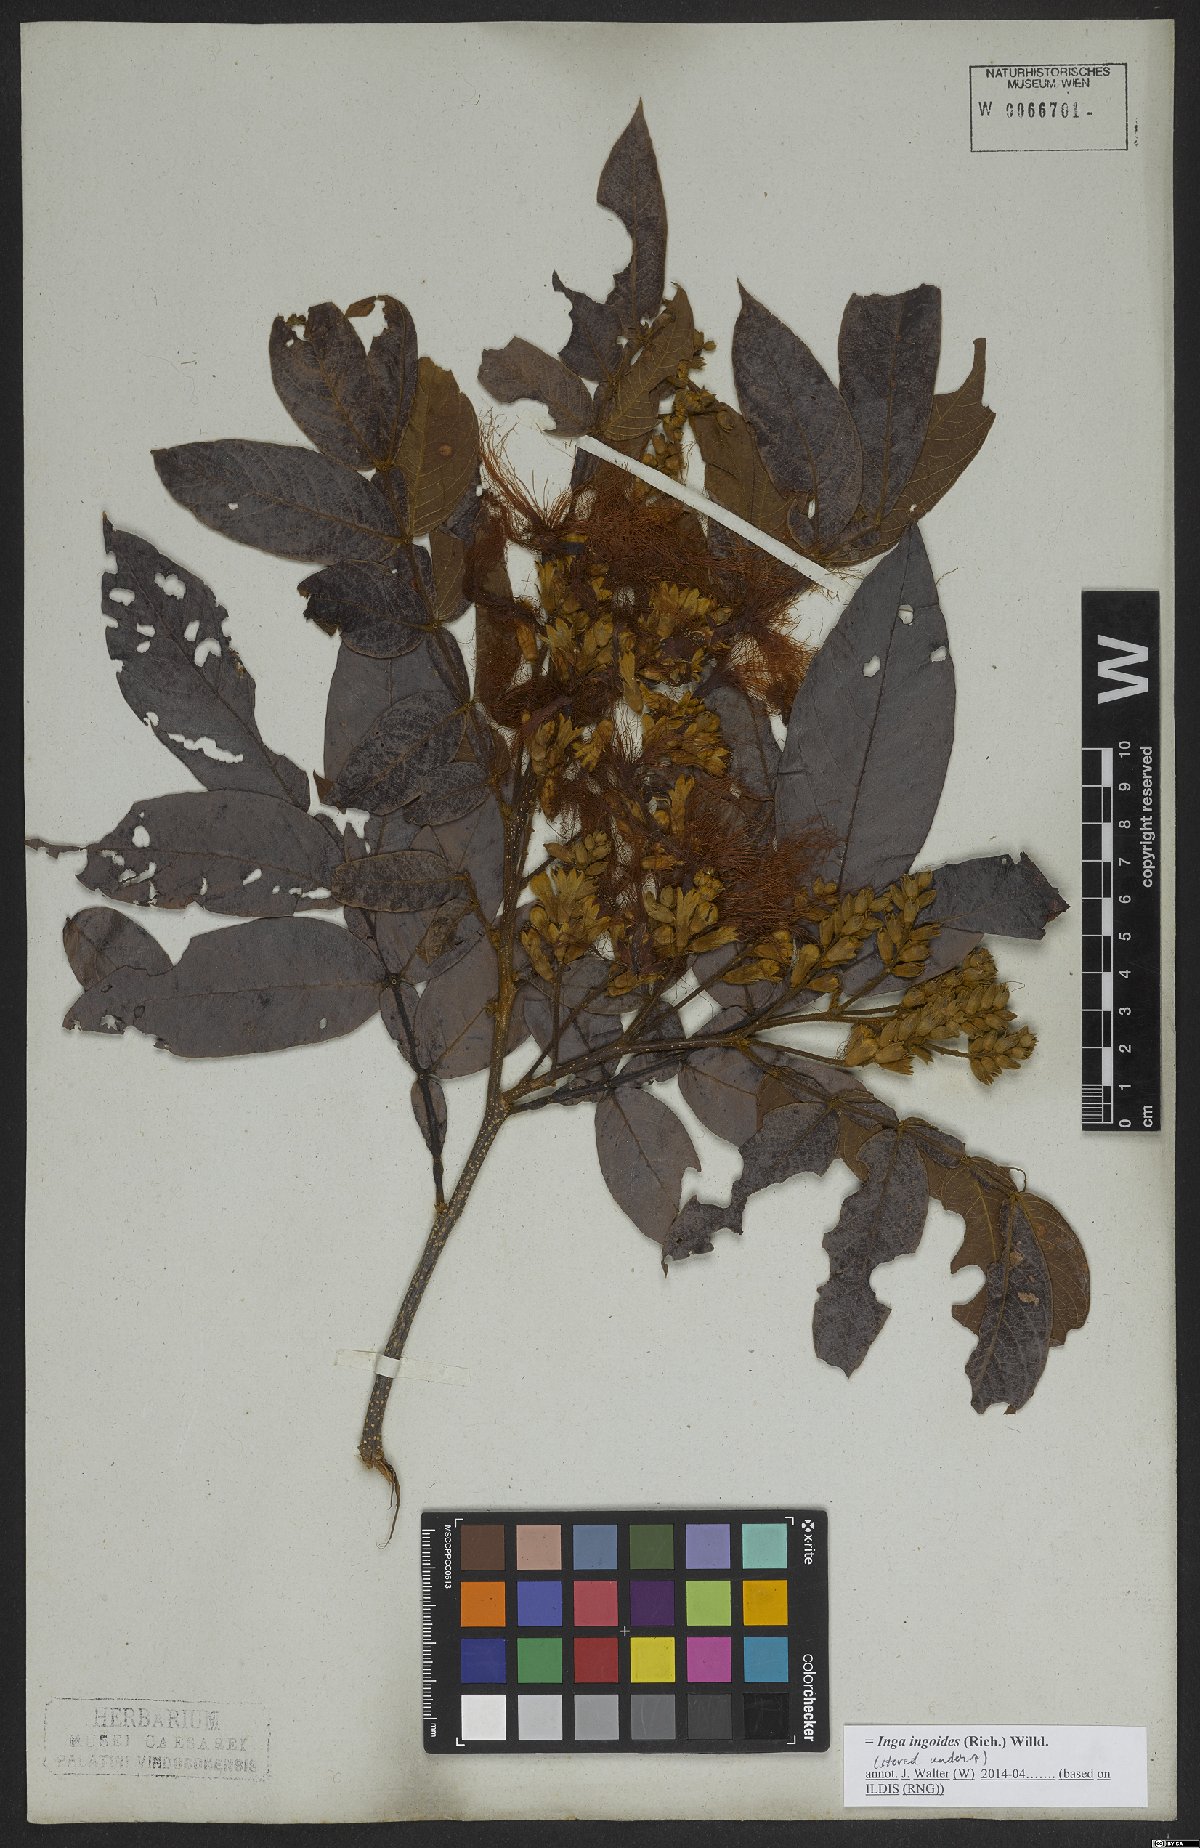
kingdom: Plantae
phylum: Tracheophyta
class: Magnoliopsida
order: Fabales
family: Fabaceae
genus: Inga
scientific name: Inga ingoides
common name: Spanish ash
